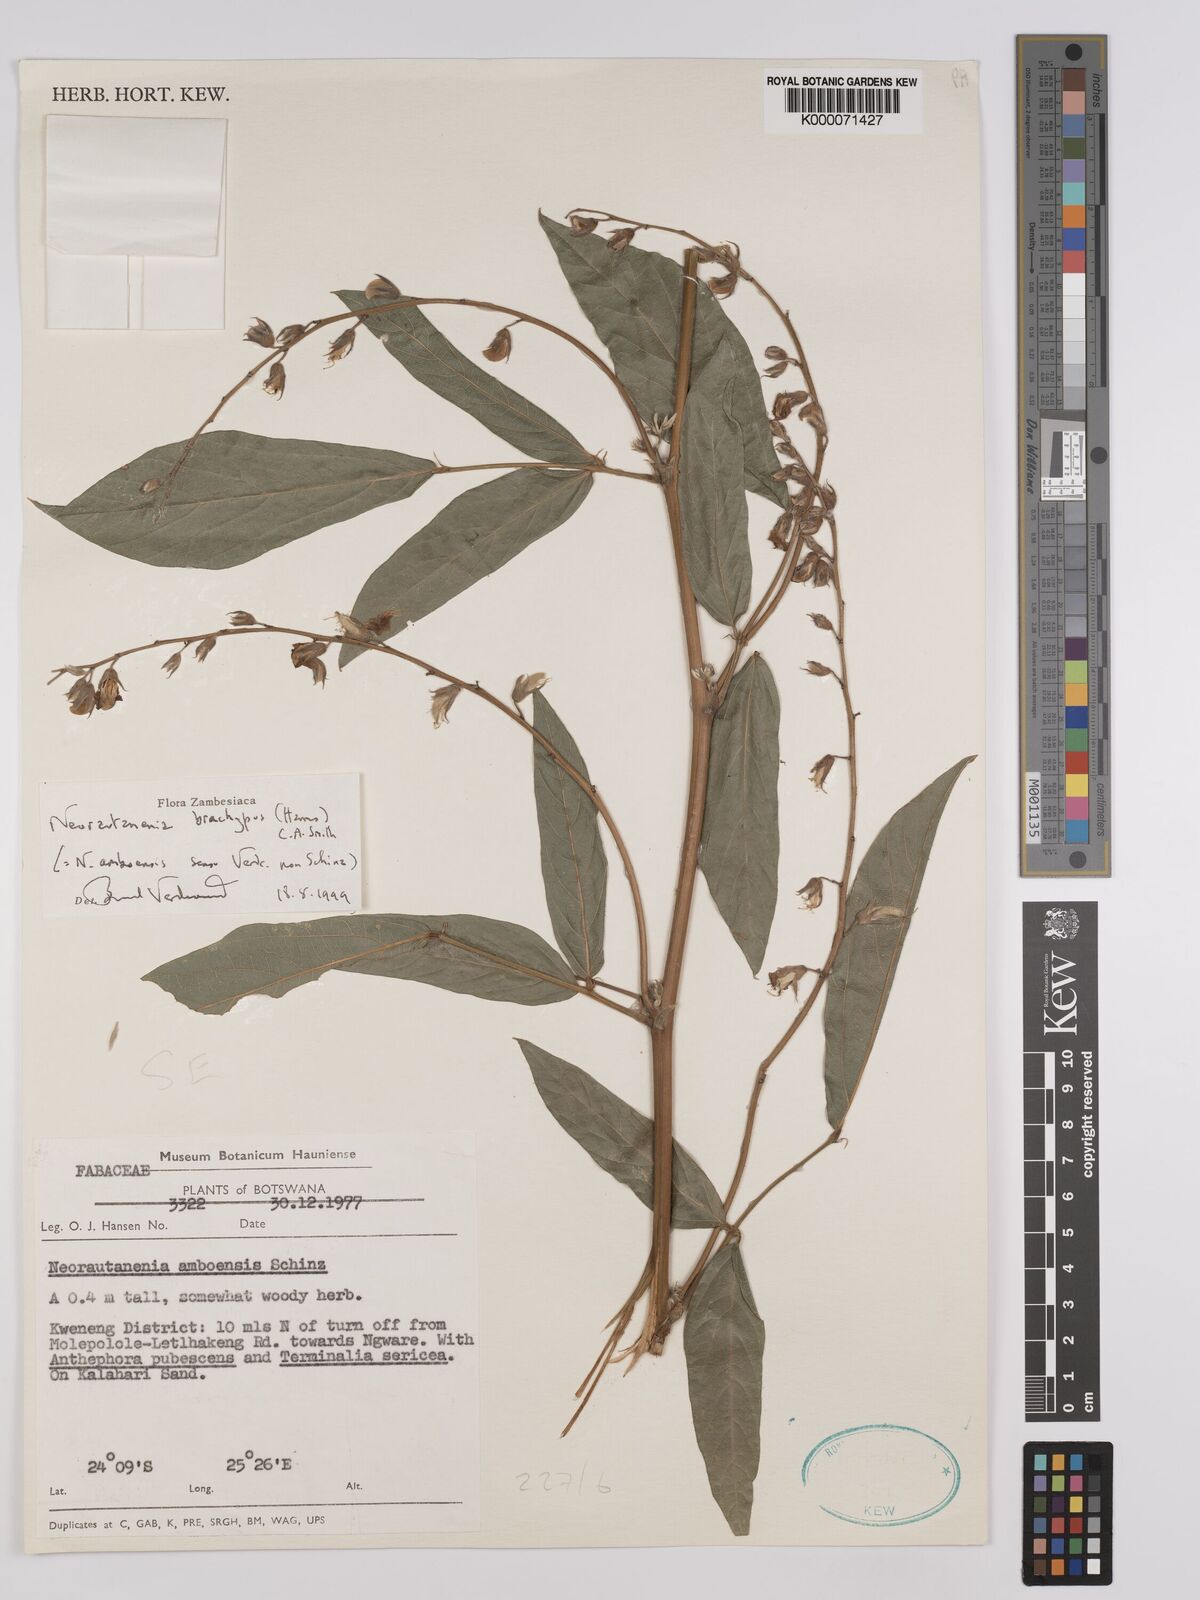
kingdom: Plantae
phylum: Tracheophyta
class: Magnoliopsida
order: Fabales
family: Fabaceae
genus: Neorautanenia
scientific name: Neorautanenia
